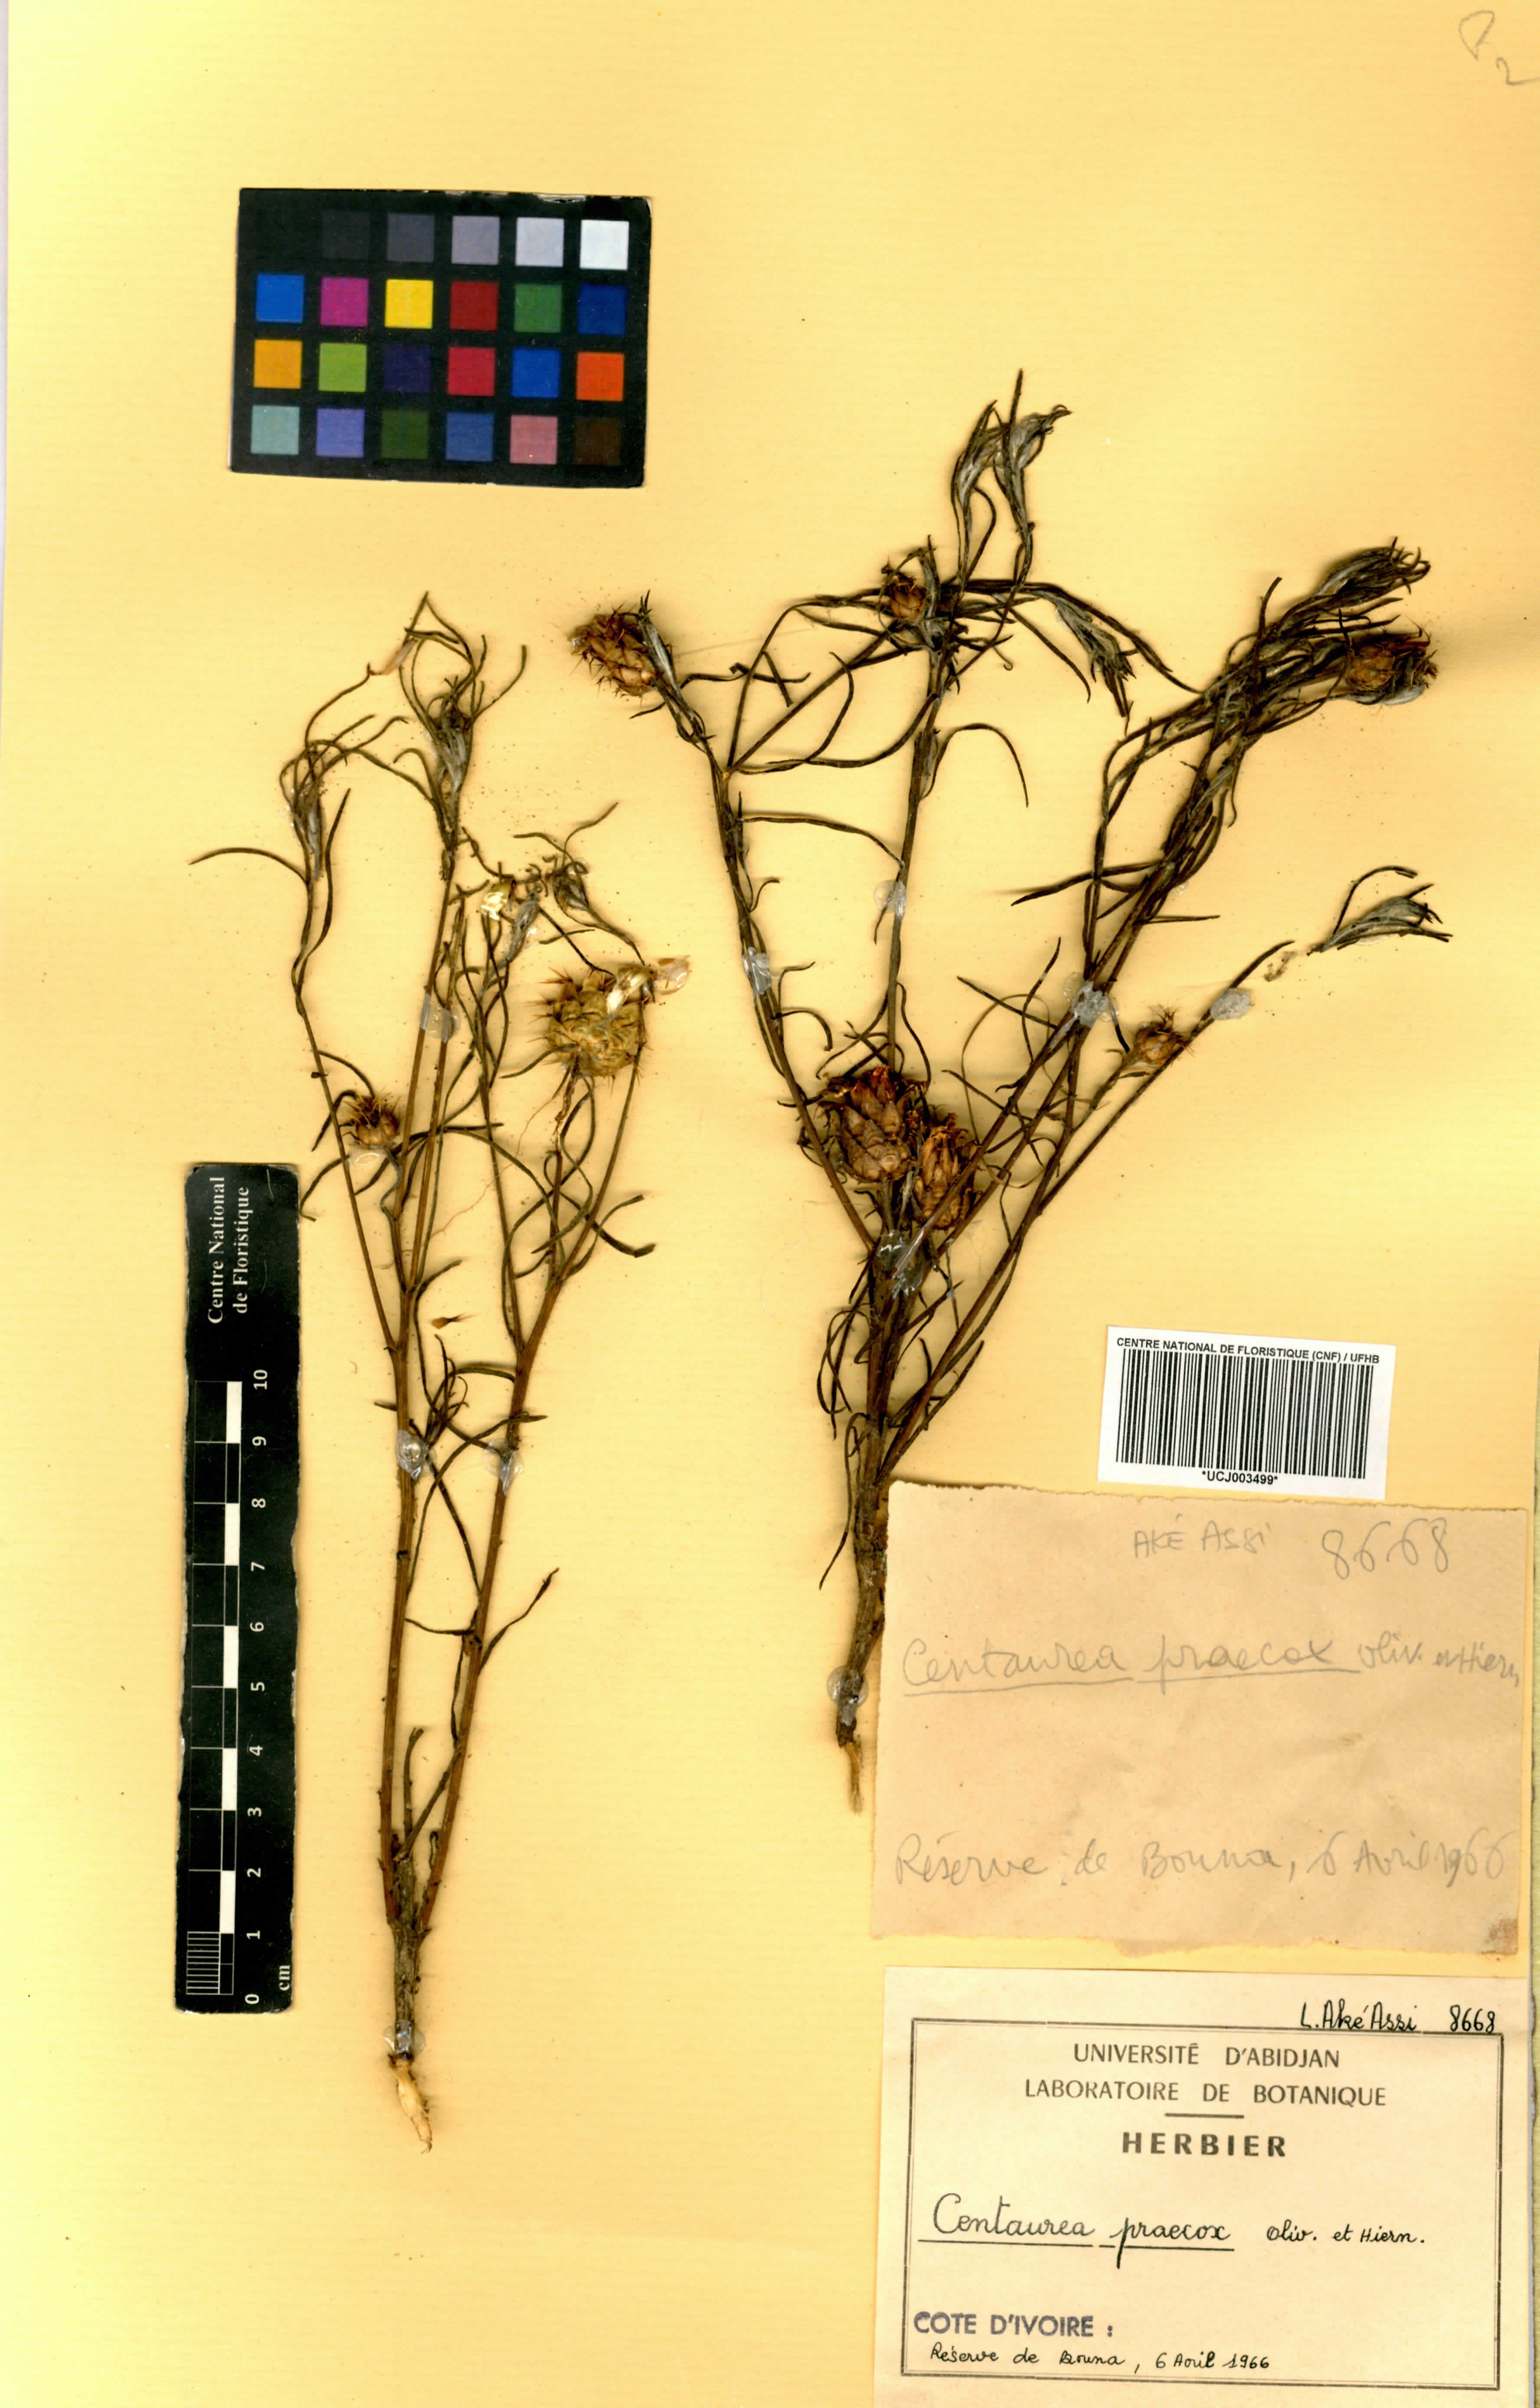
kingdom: Plantae
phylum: Tracheophyta
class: Magnoliopsida
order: Asterales
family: Asteraceae
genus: Centaurea
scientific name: Centaurea praecox
